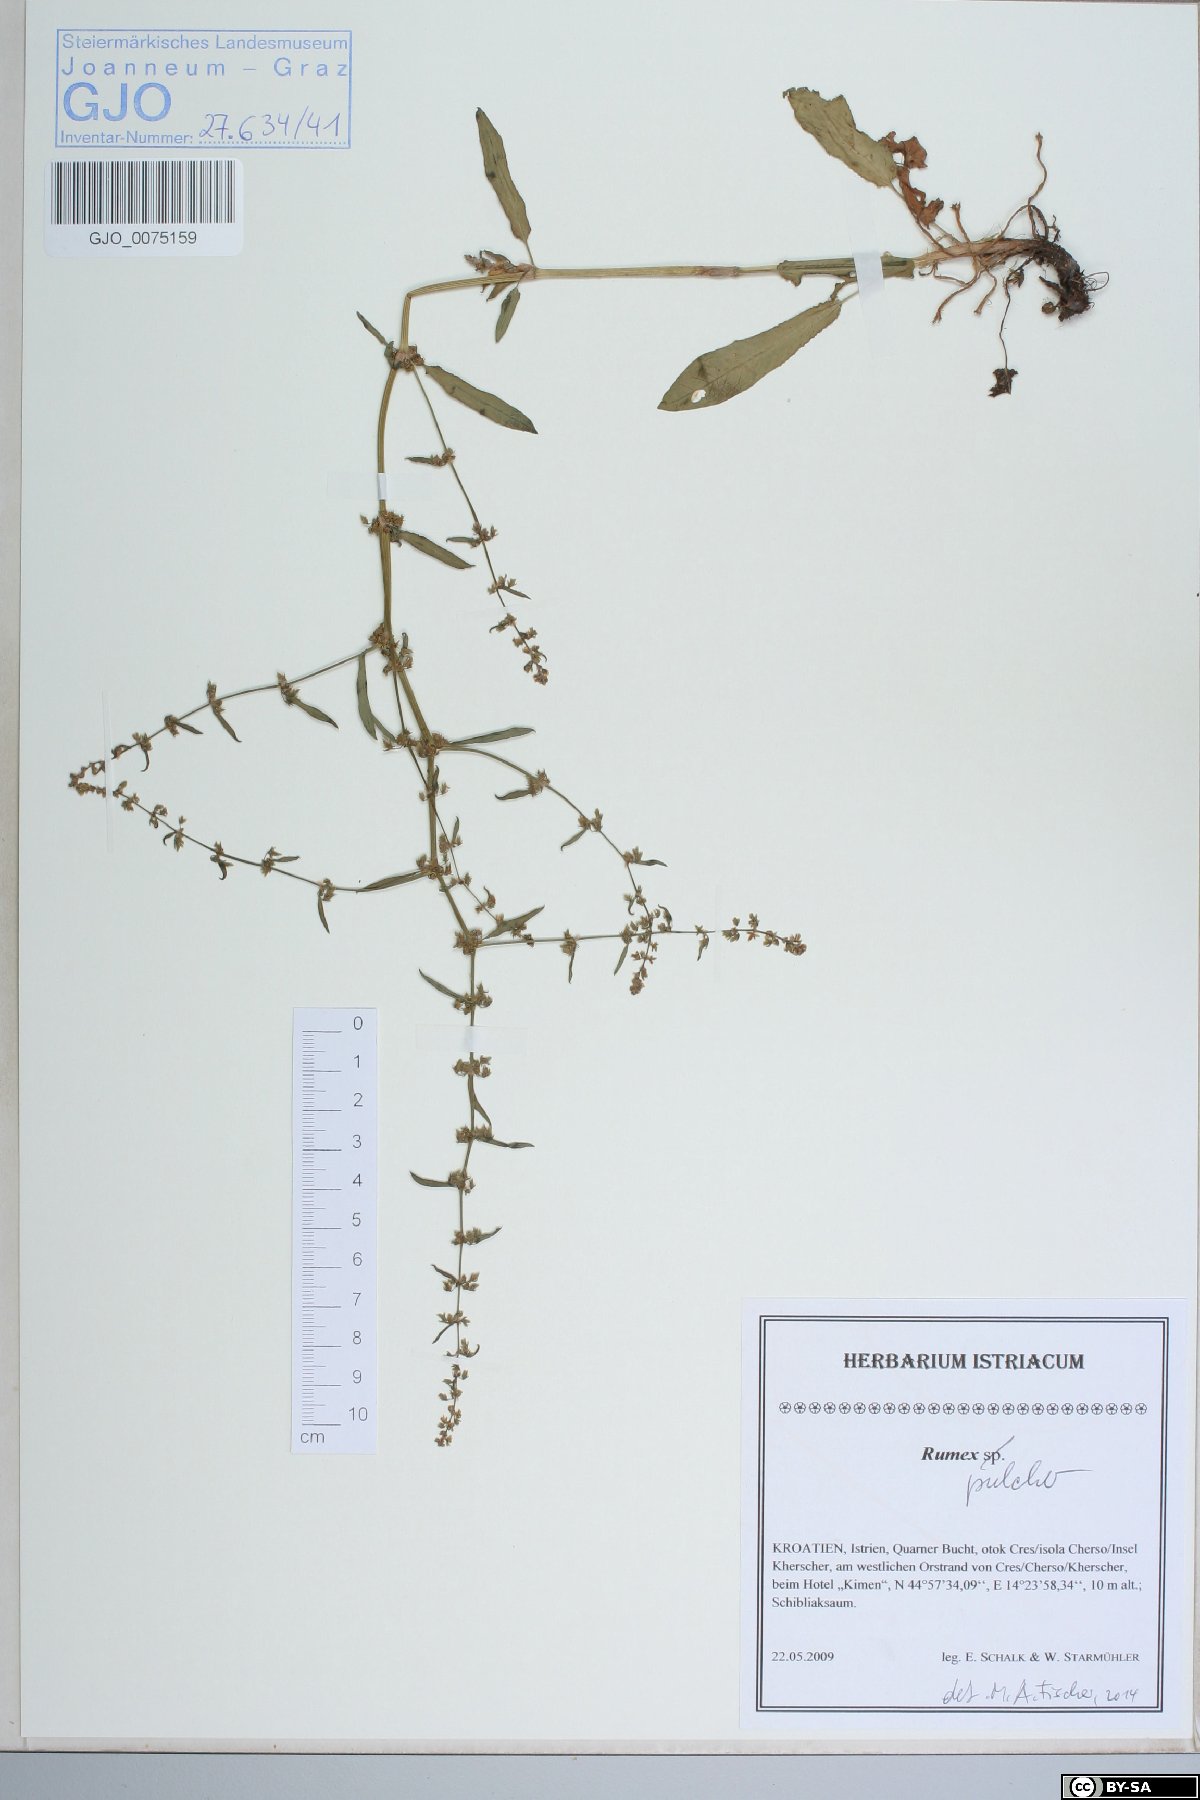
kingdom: Plantae
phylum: Tracheophyta
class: Magnoliopsida
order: Caryophyllales
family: Polygonaceae
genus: Rumex
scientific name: Rumex pulcher
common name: Fiddle dock
